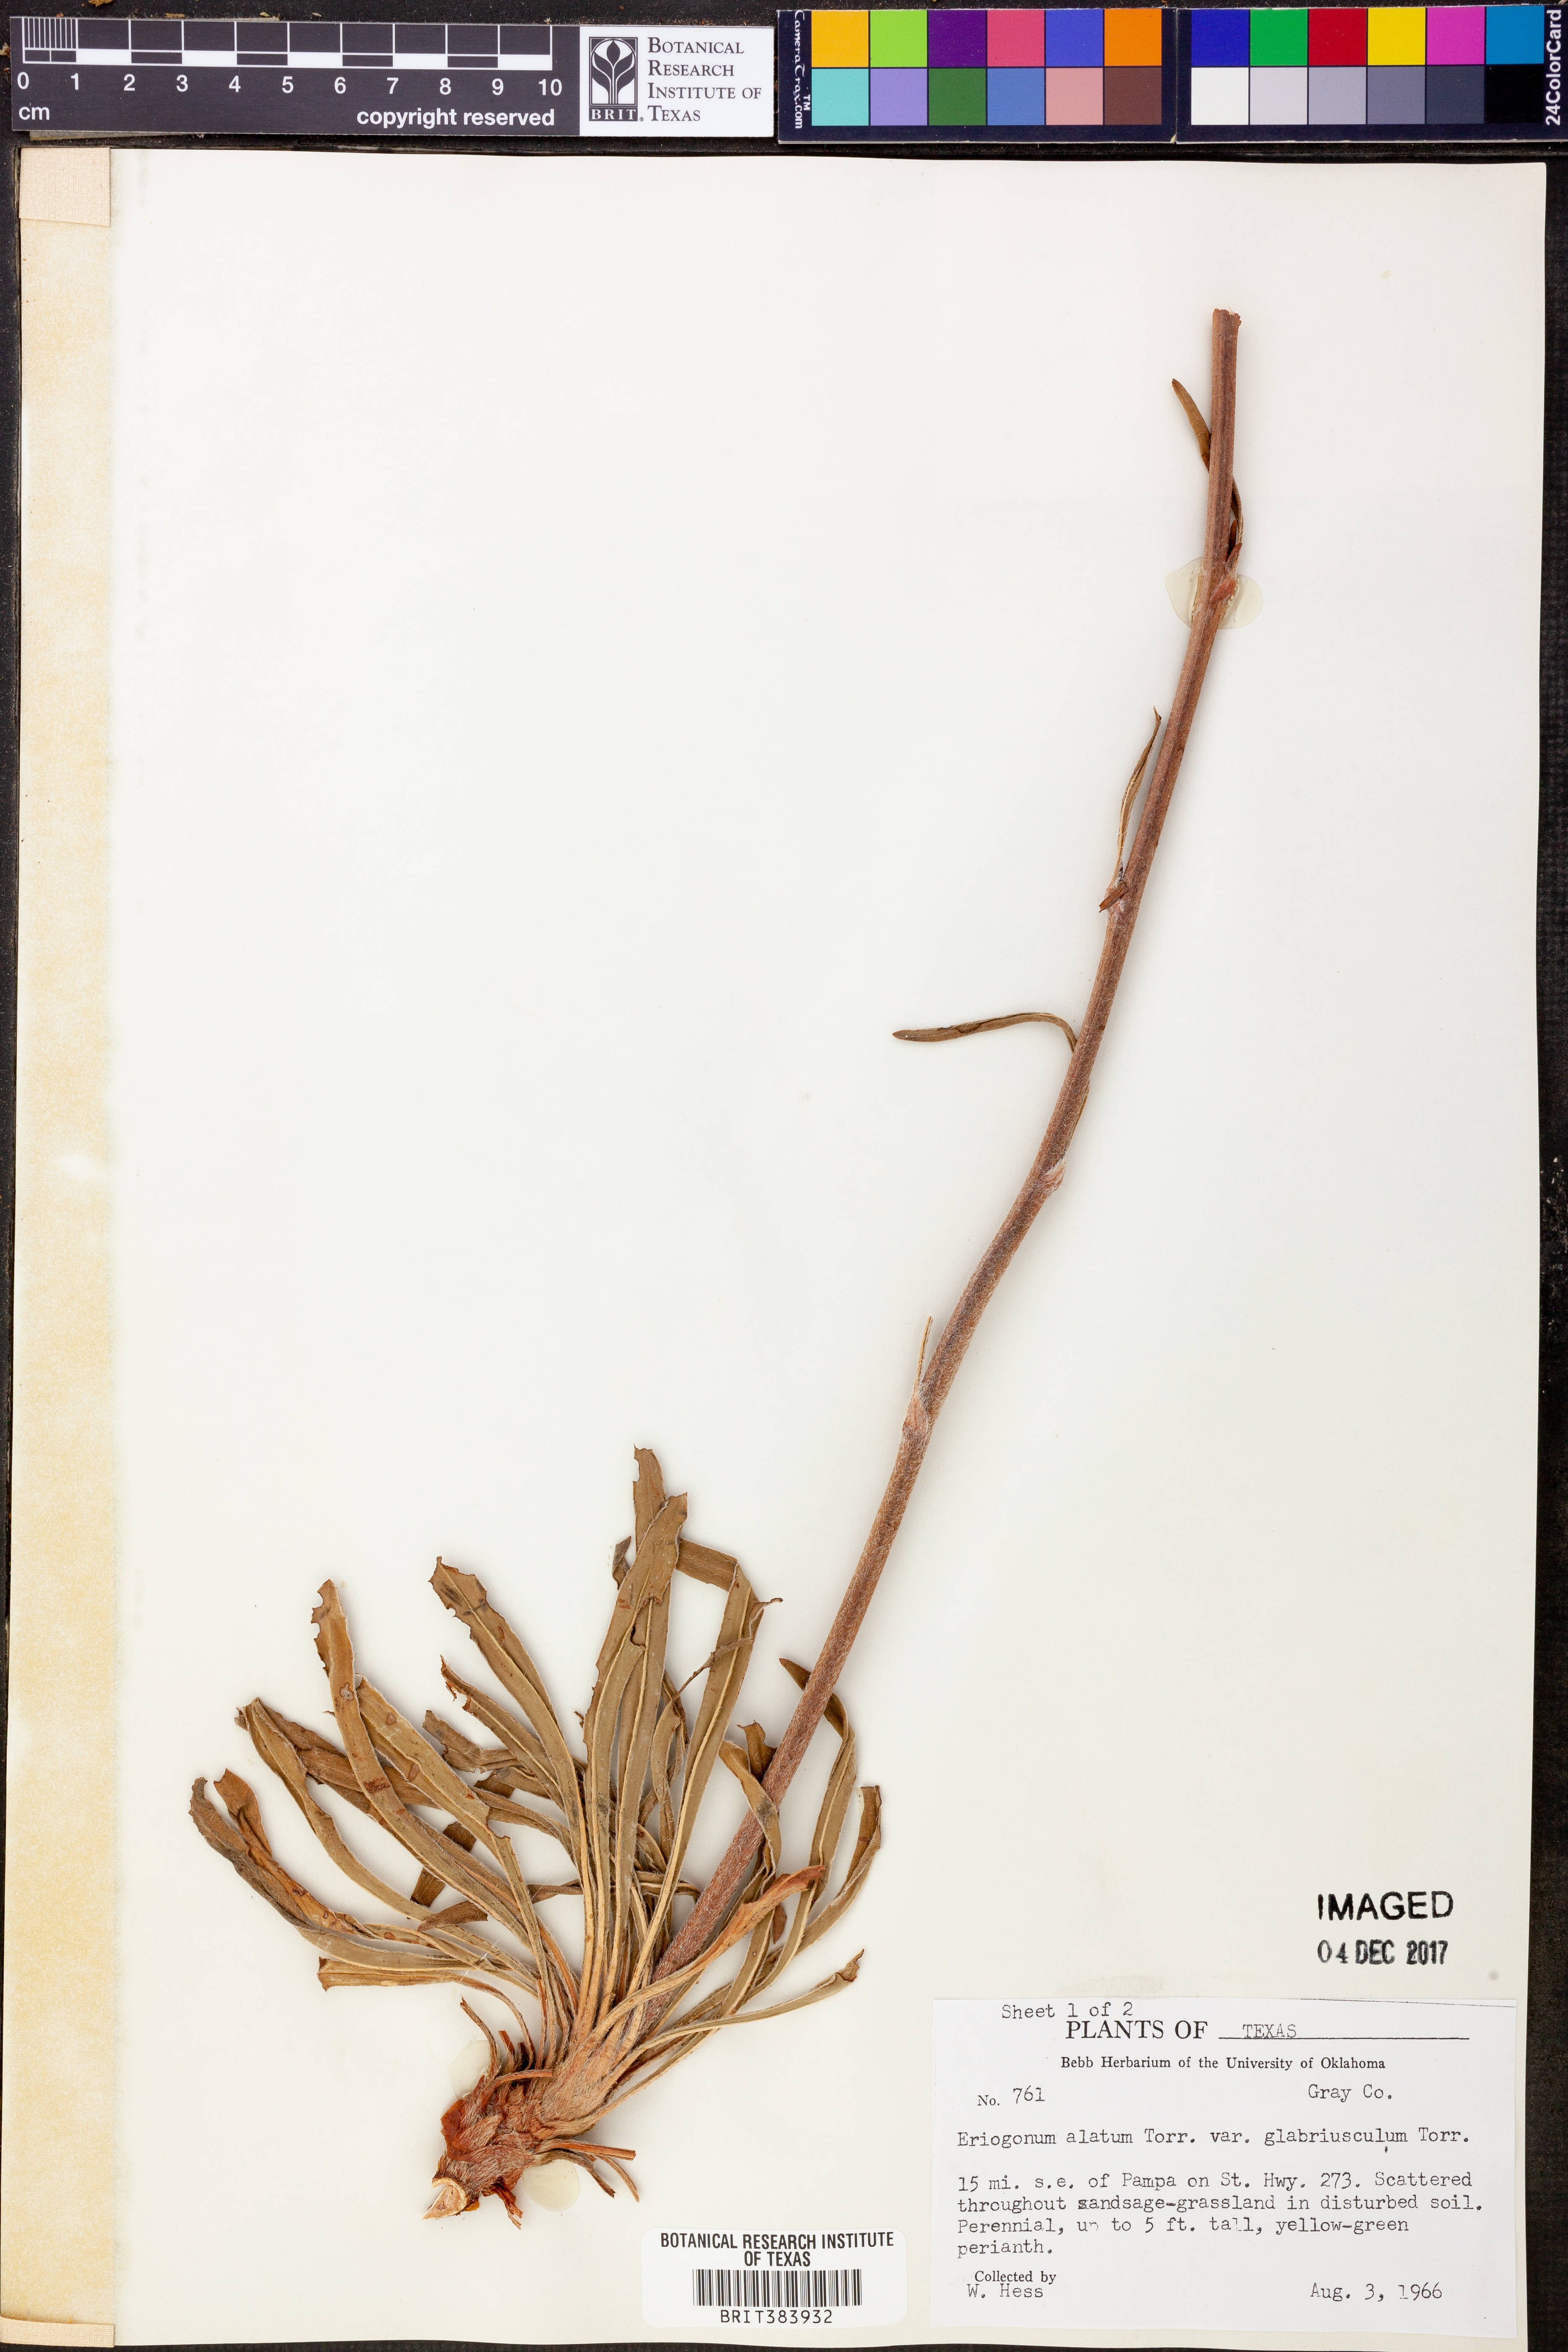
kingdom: Plantae
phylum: Tracheophyta
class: Magnoliopsida
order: Caryophyllales
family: Polygonaceae
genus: Eriogonum
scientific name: Eriogonum alatum
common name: Winged eriogonum
